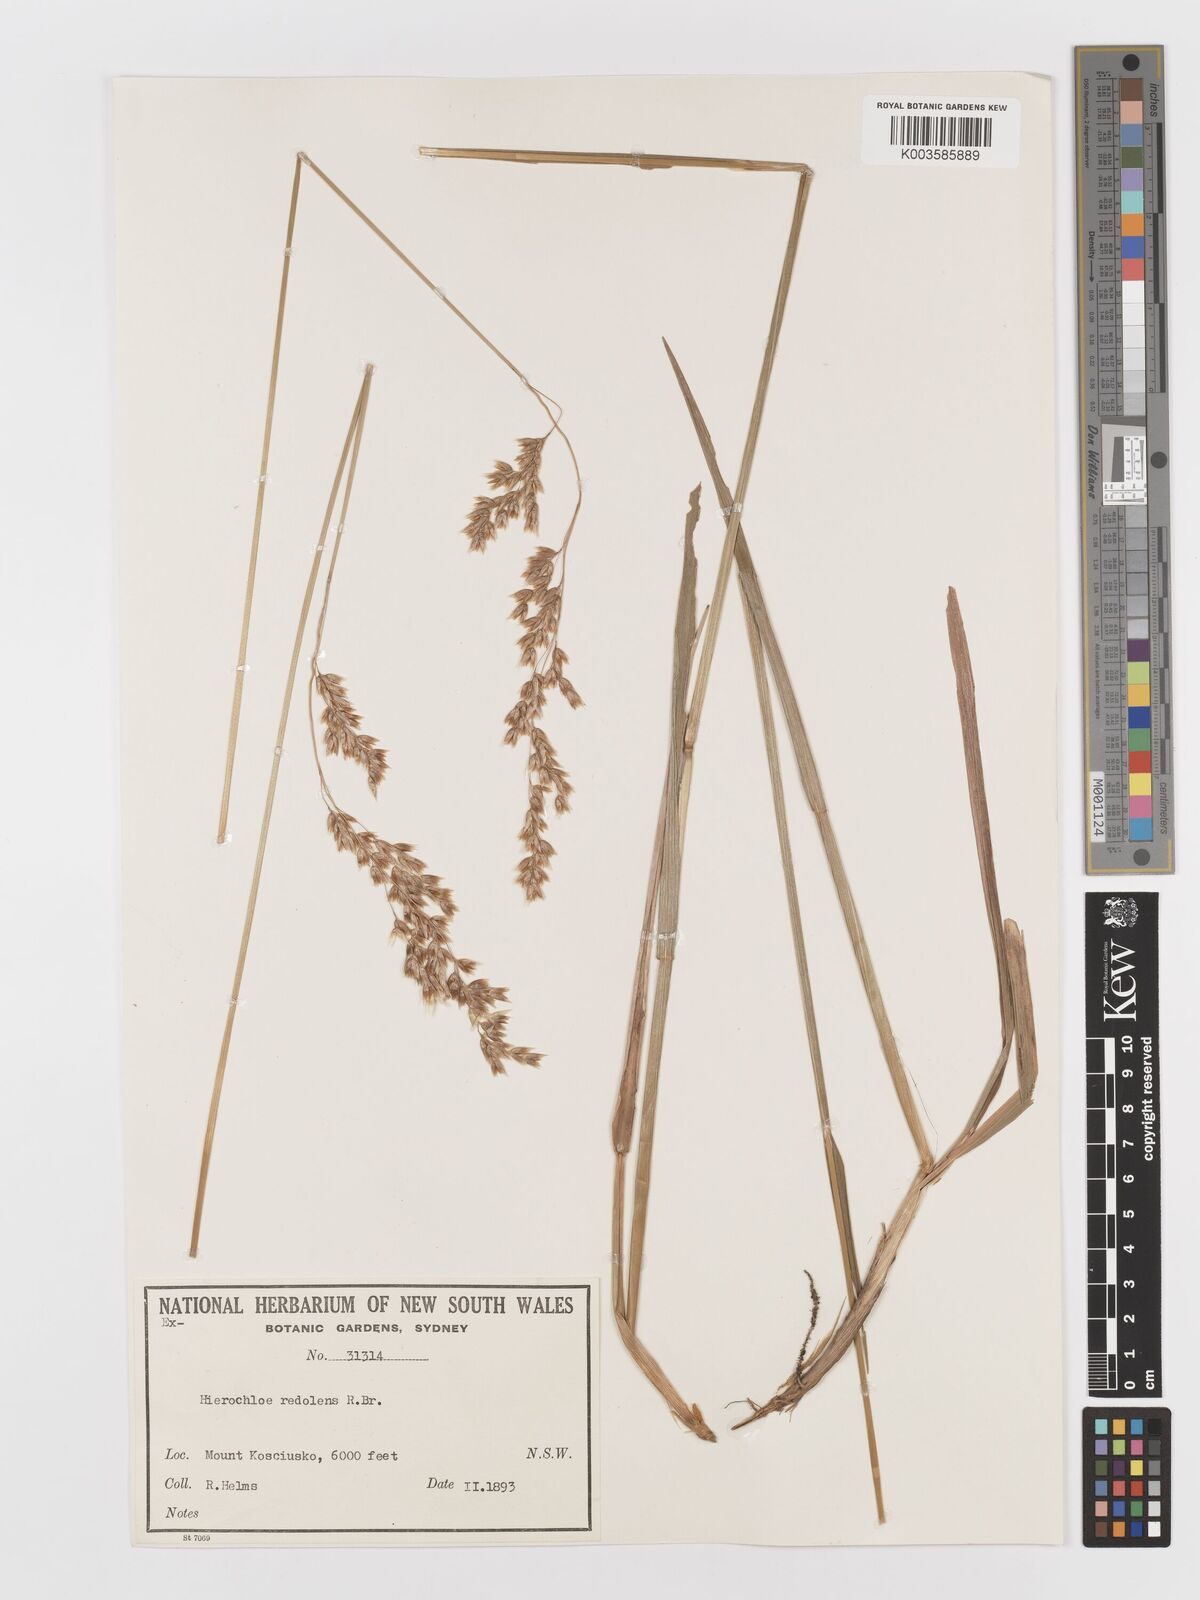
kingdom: Plantae
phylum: Tracheophyta
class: Liliopsida
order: Poales
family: Poaceae
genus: Anthoxanthum
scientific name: Anthoxanthum redolens
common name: Sweet holy grass
